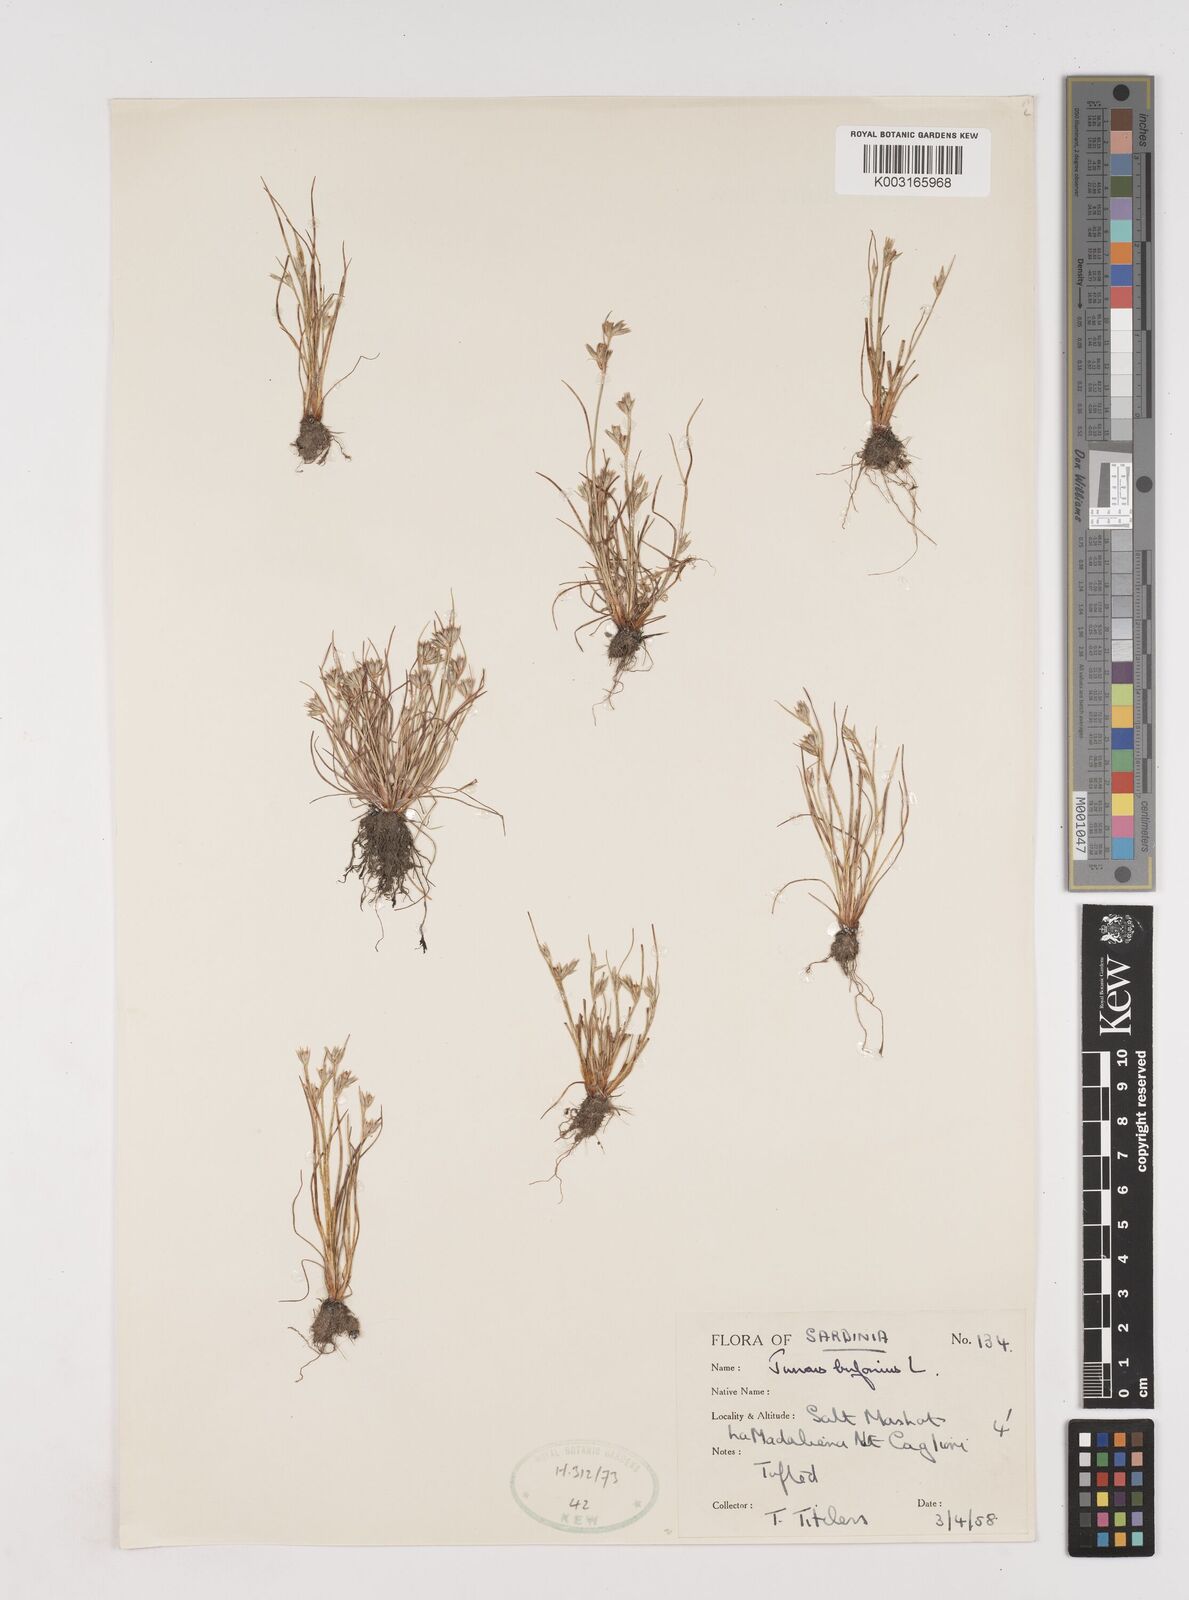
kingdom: Plantae
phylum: Tracheophyta
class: Liliopsida
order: Poales
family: Juncaceae
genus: Juncus
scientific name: Juncus bufonius
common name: Toad rush
